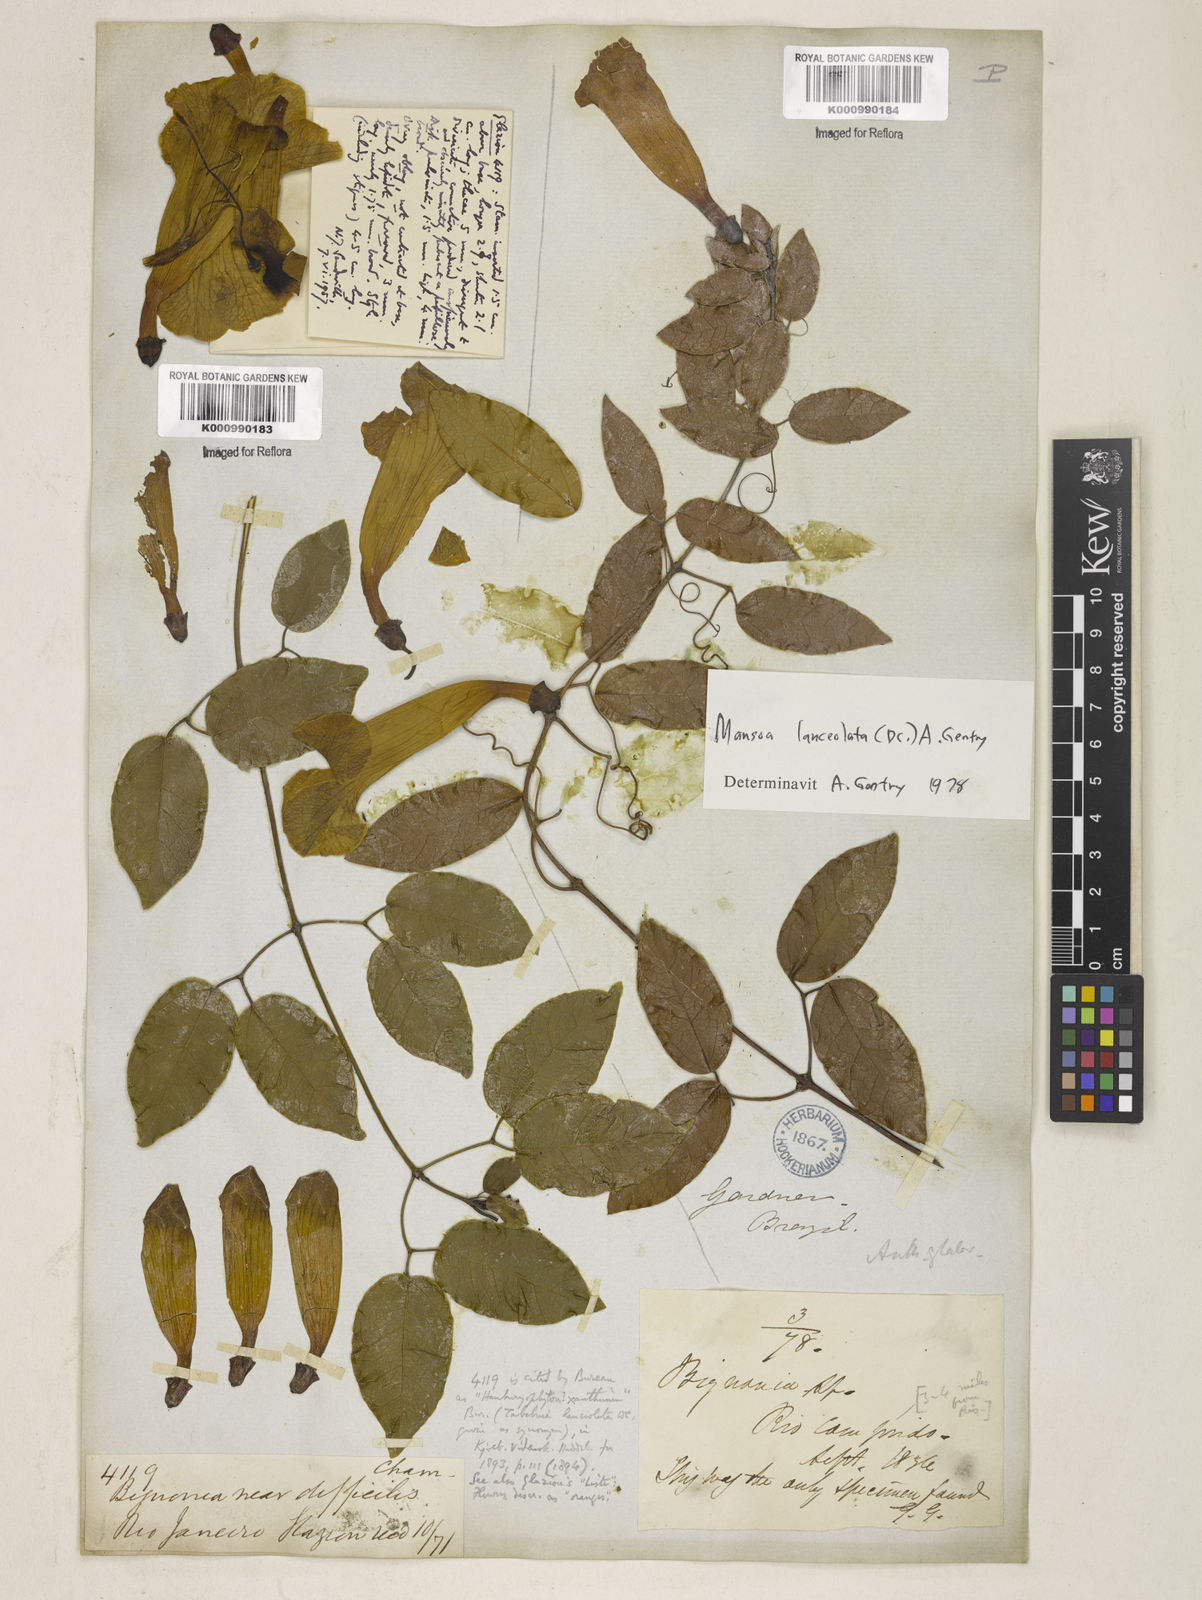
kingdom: Plantae
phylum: Tracheophyta
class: Magnoliopsida
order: Lamiales
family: Bignoniaceae
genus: Mansoa
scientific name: Mansoa difficilis
